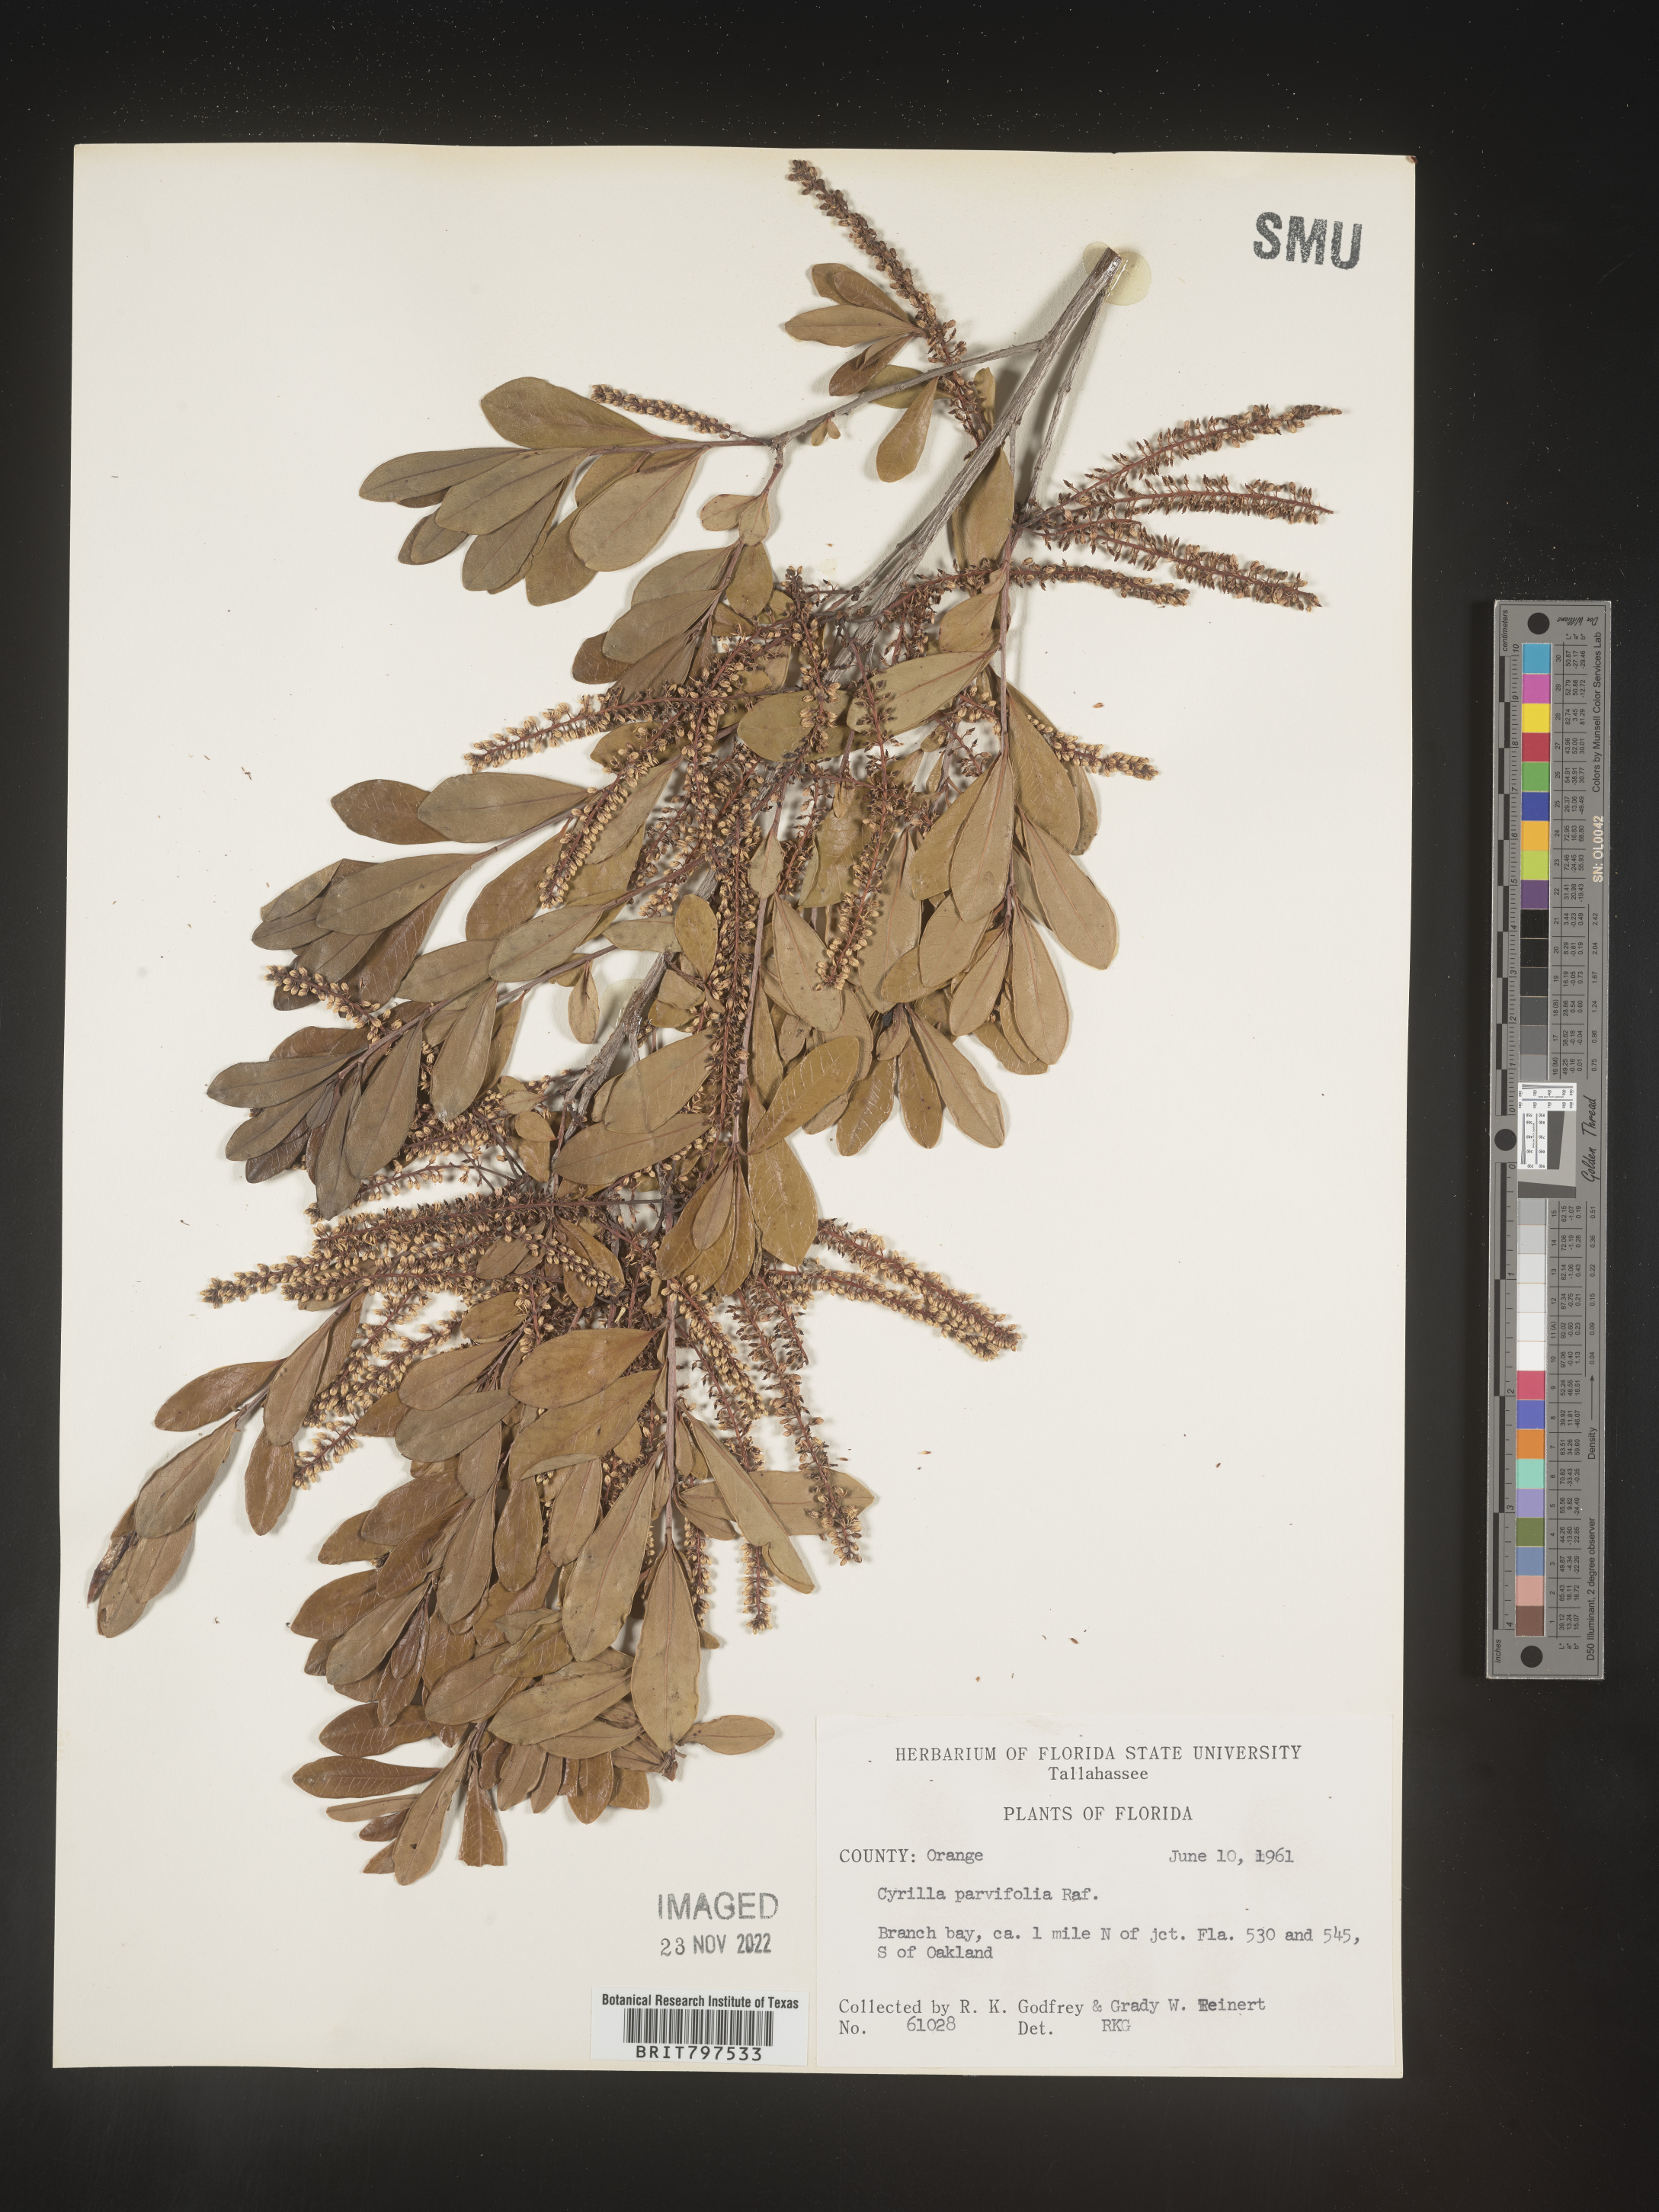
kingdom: Plantae
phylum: Tracheophyta
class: Magnoliopsida
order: Ericales
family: Cyrillaceae
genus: Cyrilla
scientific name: Cyrilla racemiflora
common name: Black titi
